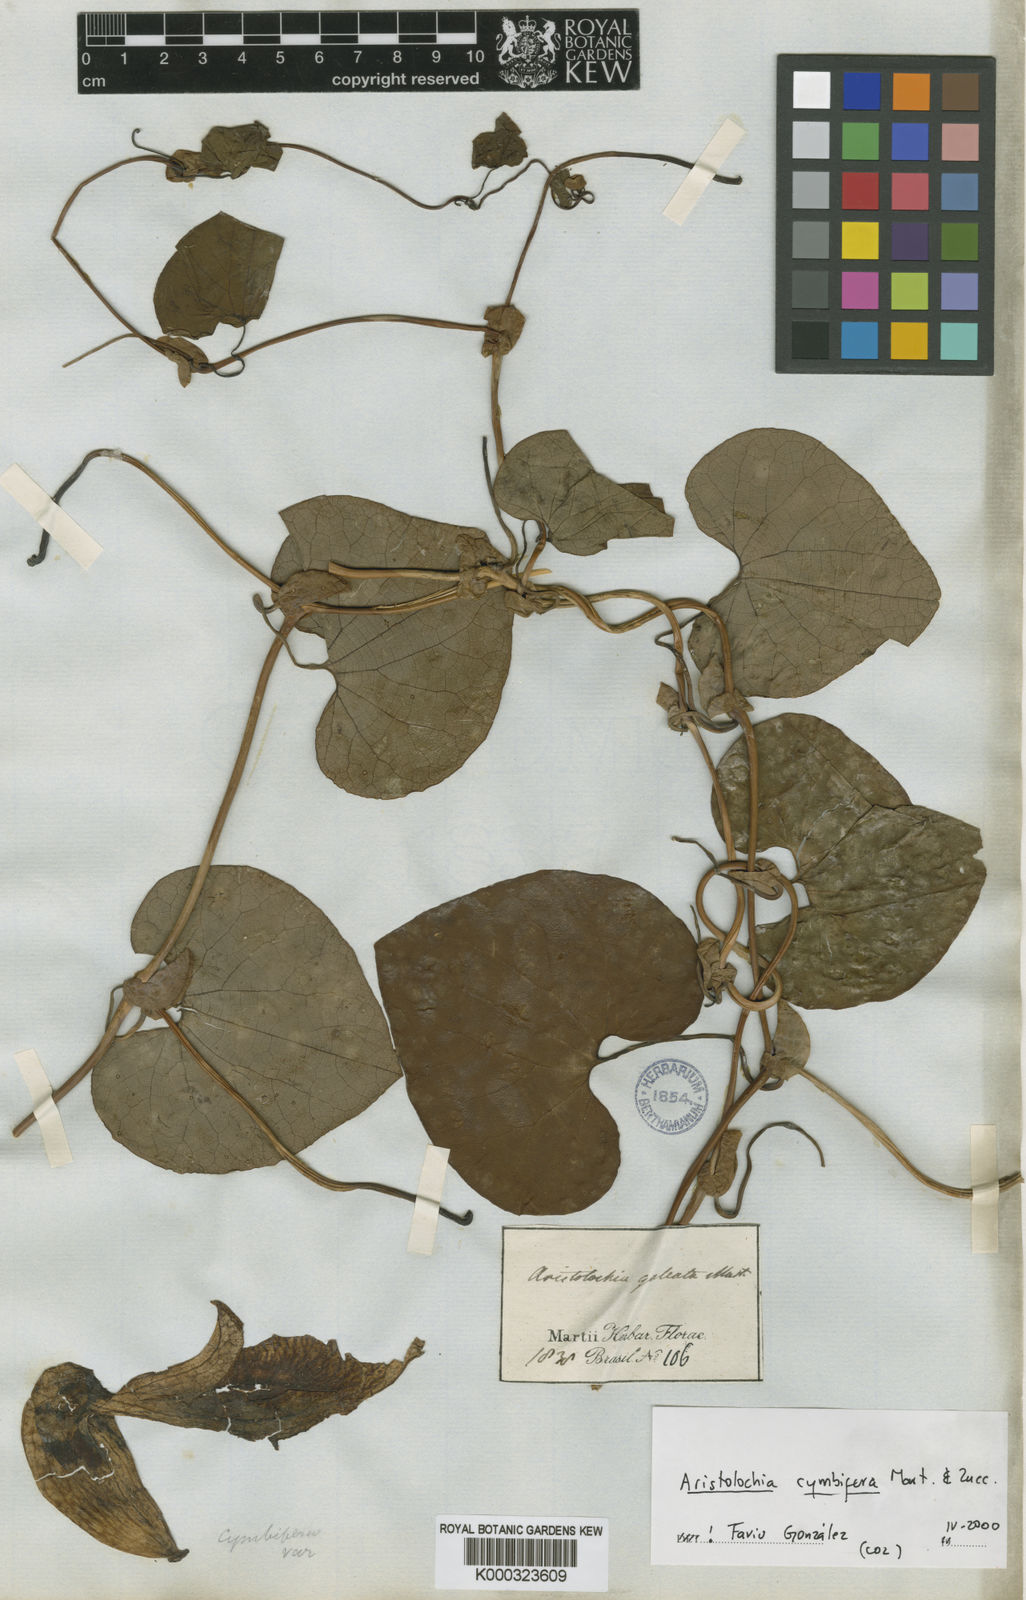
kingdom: Plantae
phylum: Tracheophyta
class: Magnoliopsida
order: Piperales
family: Aristolochiaceae
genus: Aristolochia
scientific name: Aristolochia cymbifera
